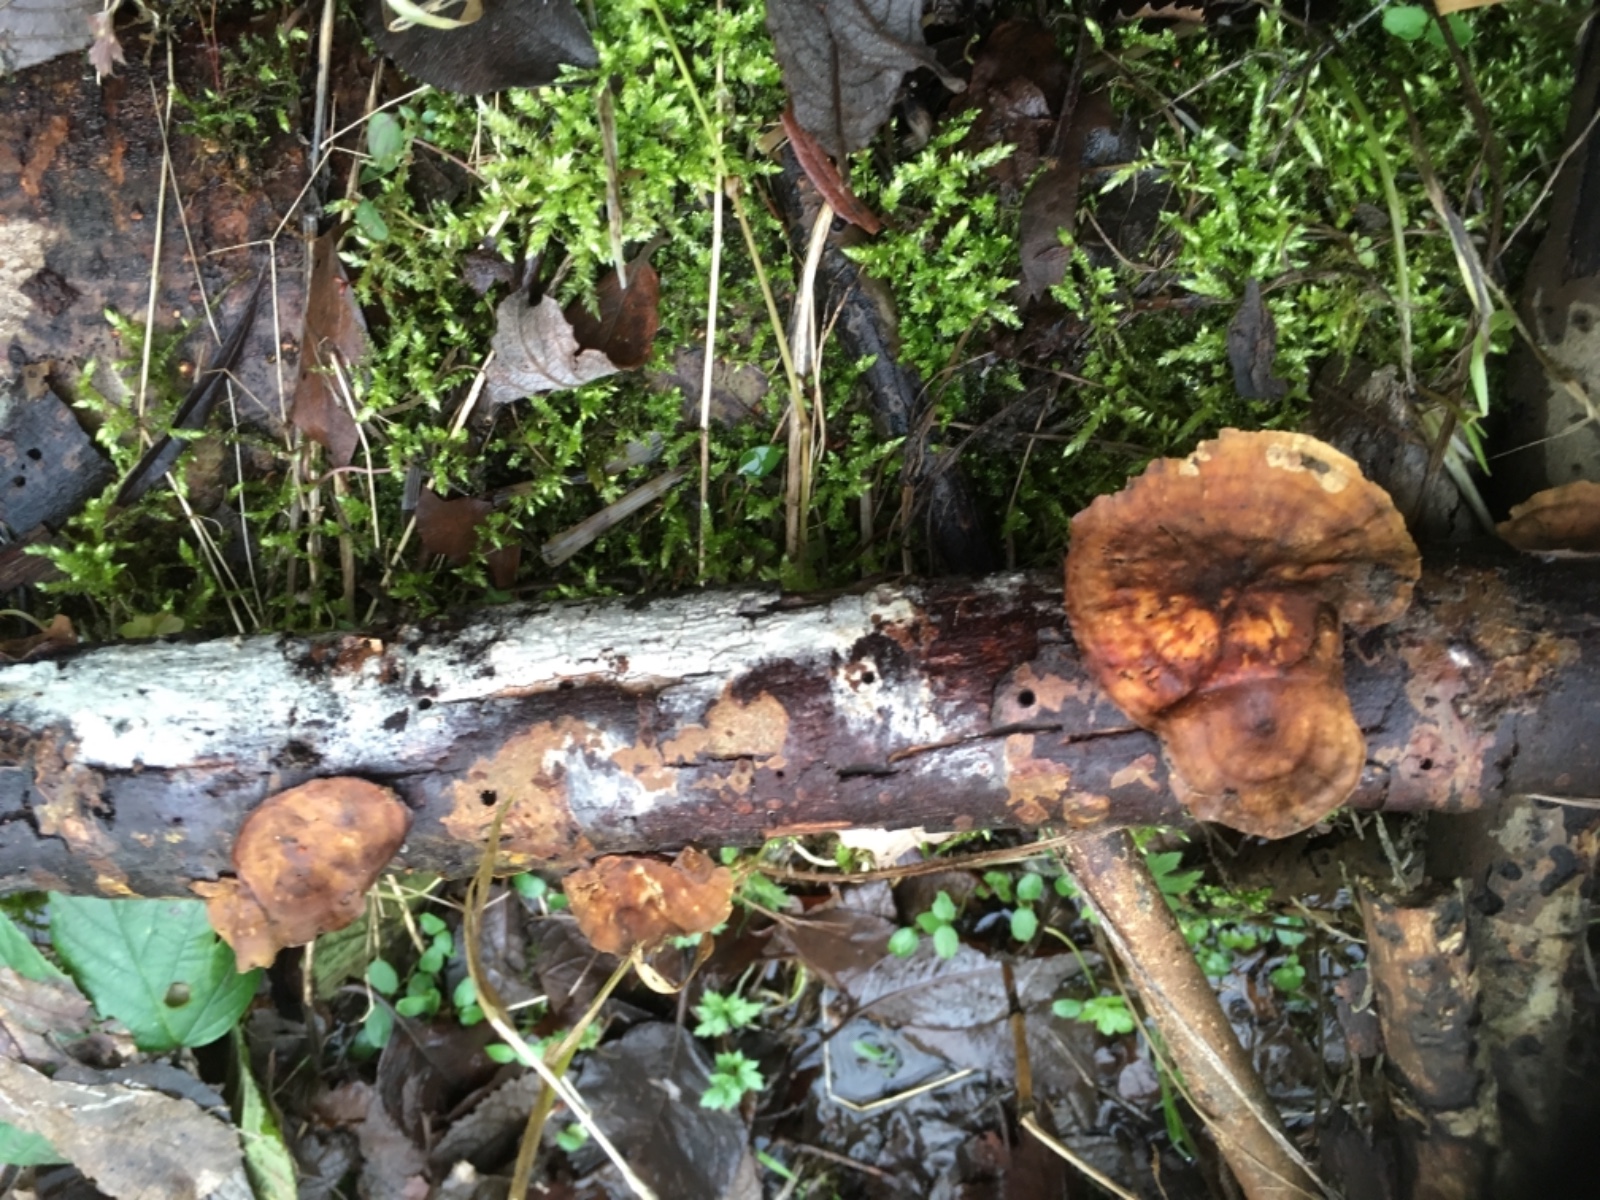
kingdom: Fungi
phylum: Basidiomycota
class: Agaricomycetes
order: Russulales
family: Stereaceae
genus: Stereum
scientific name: Stereum subtomentosum
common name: smuk lædersvamp
